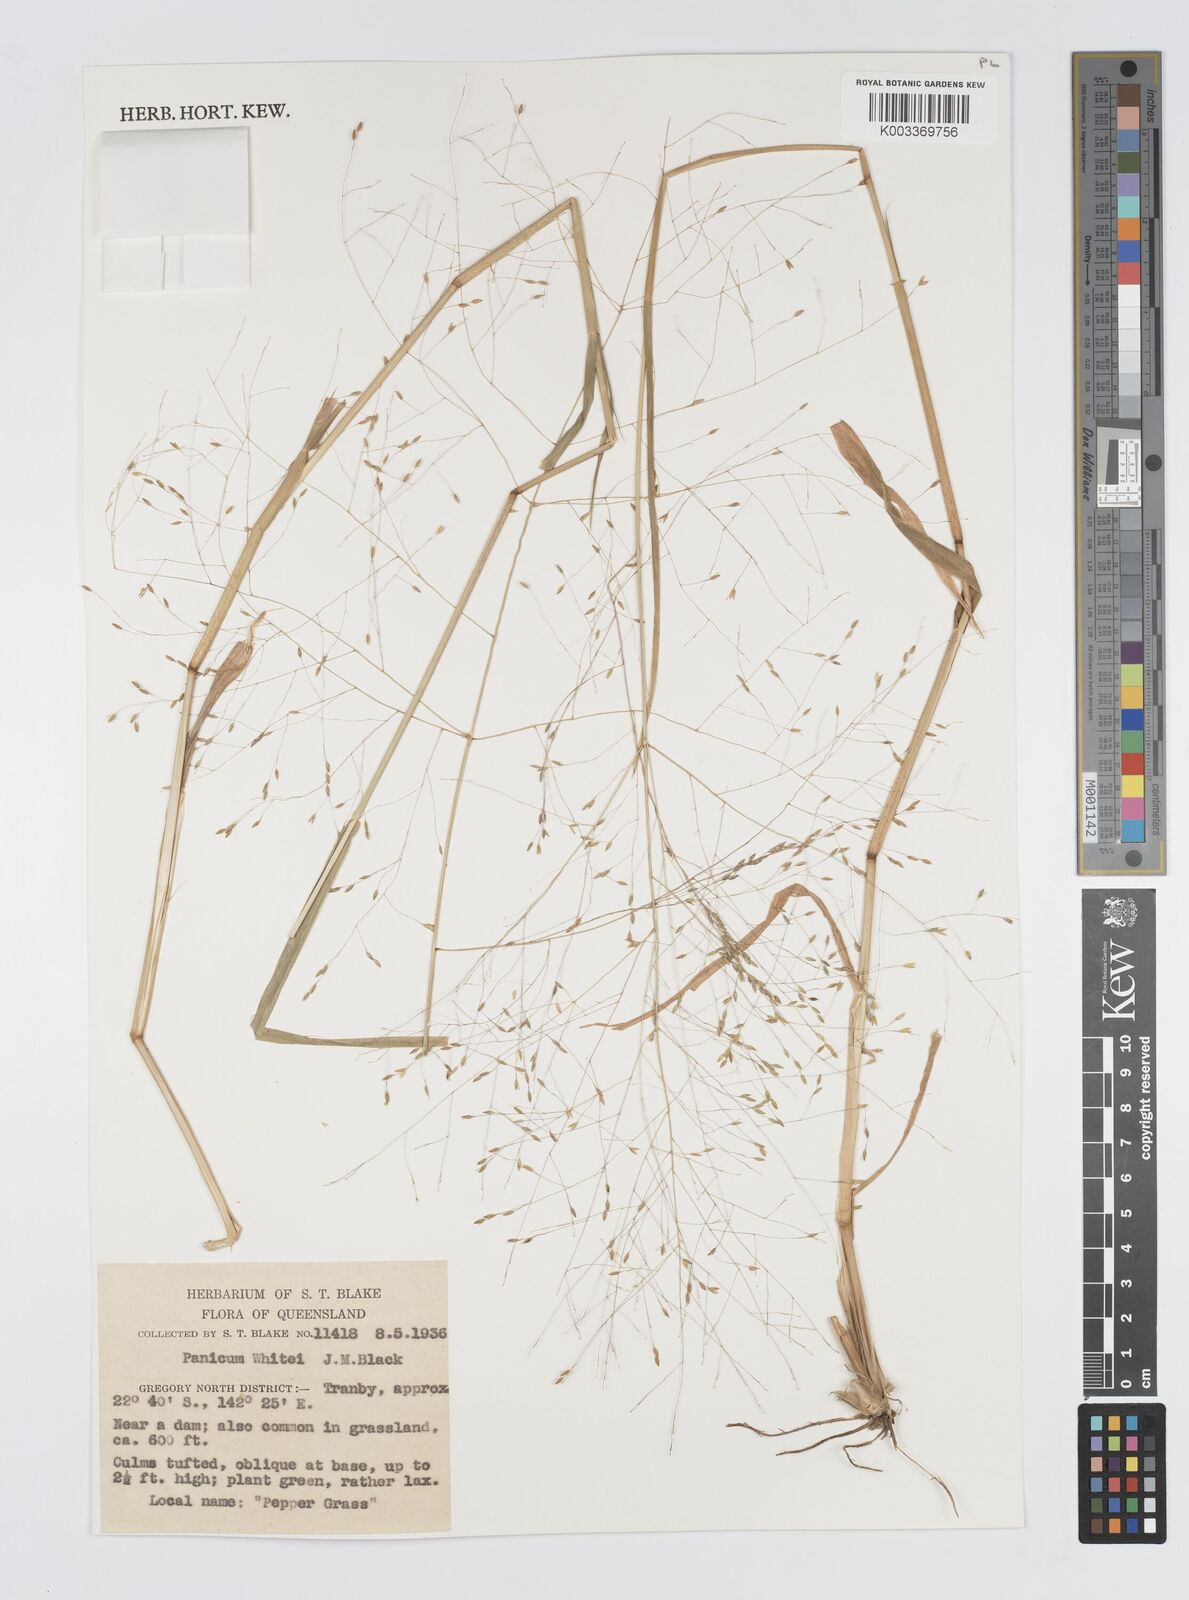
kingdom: Plantae
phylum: Tracheophyta
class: Liliopsida
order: Poales
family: Poaceae
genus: Panicum
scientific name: Panicum laevinode
